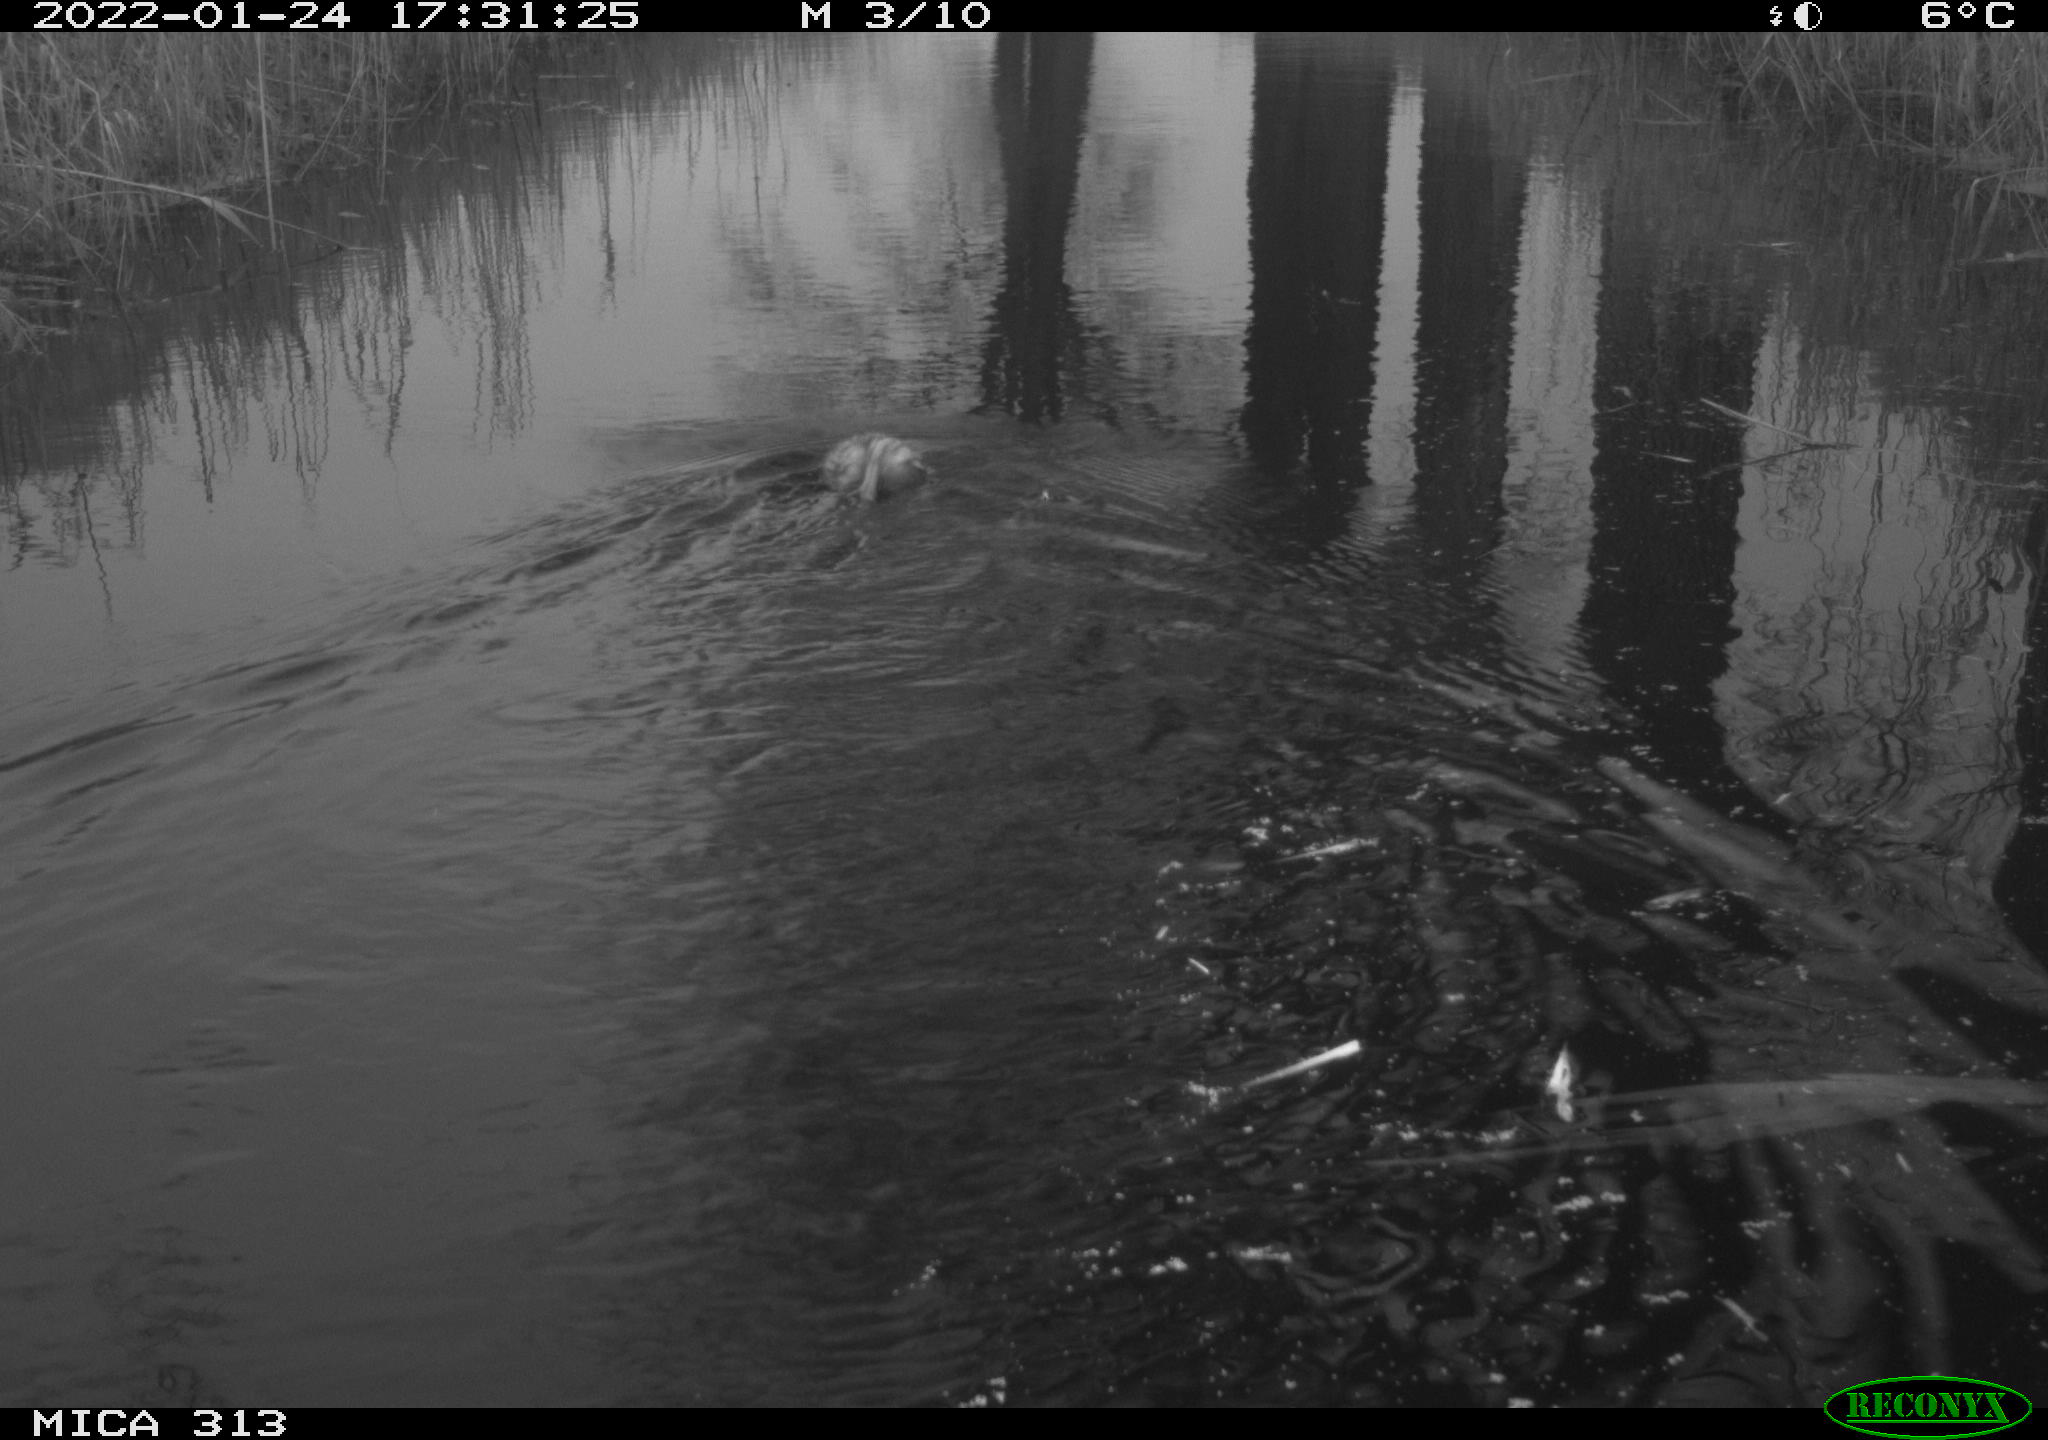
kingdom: Animalia
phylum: Chordata
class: Mammalia
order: Rodentia
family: Cricetidae
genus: Ondatra
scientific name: Ondatra zibethicus
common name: Muskrat
